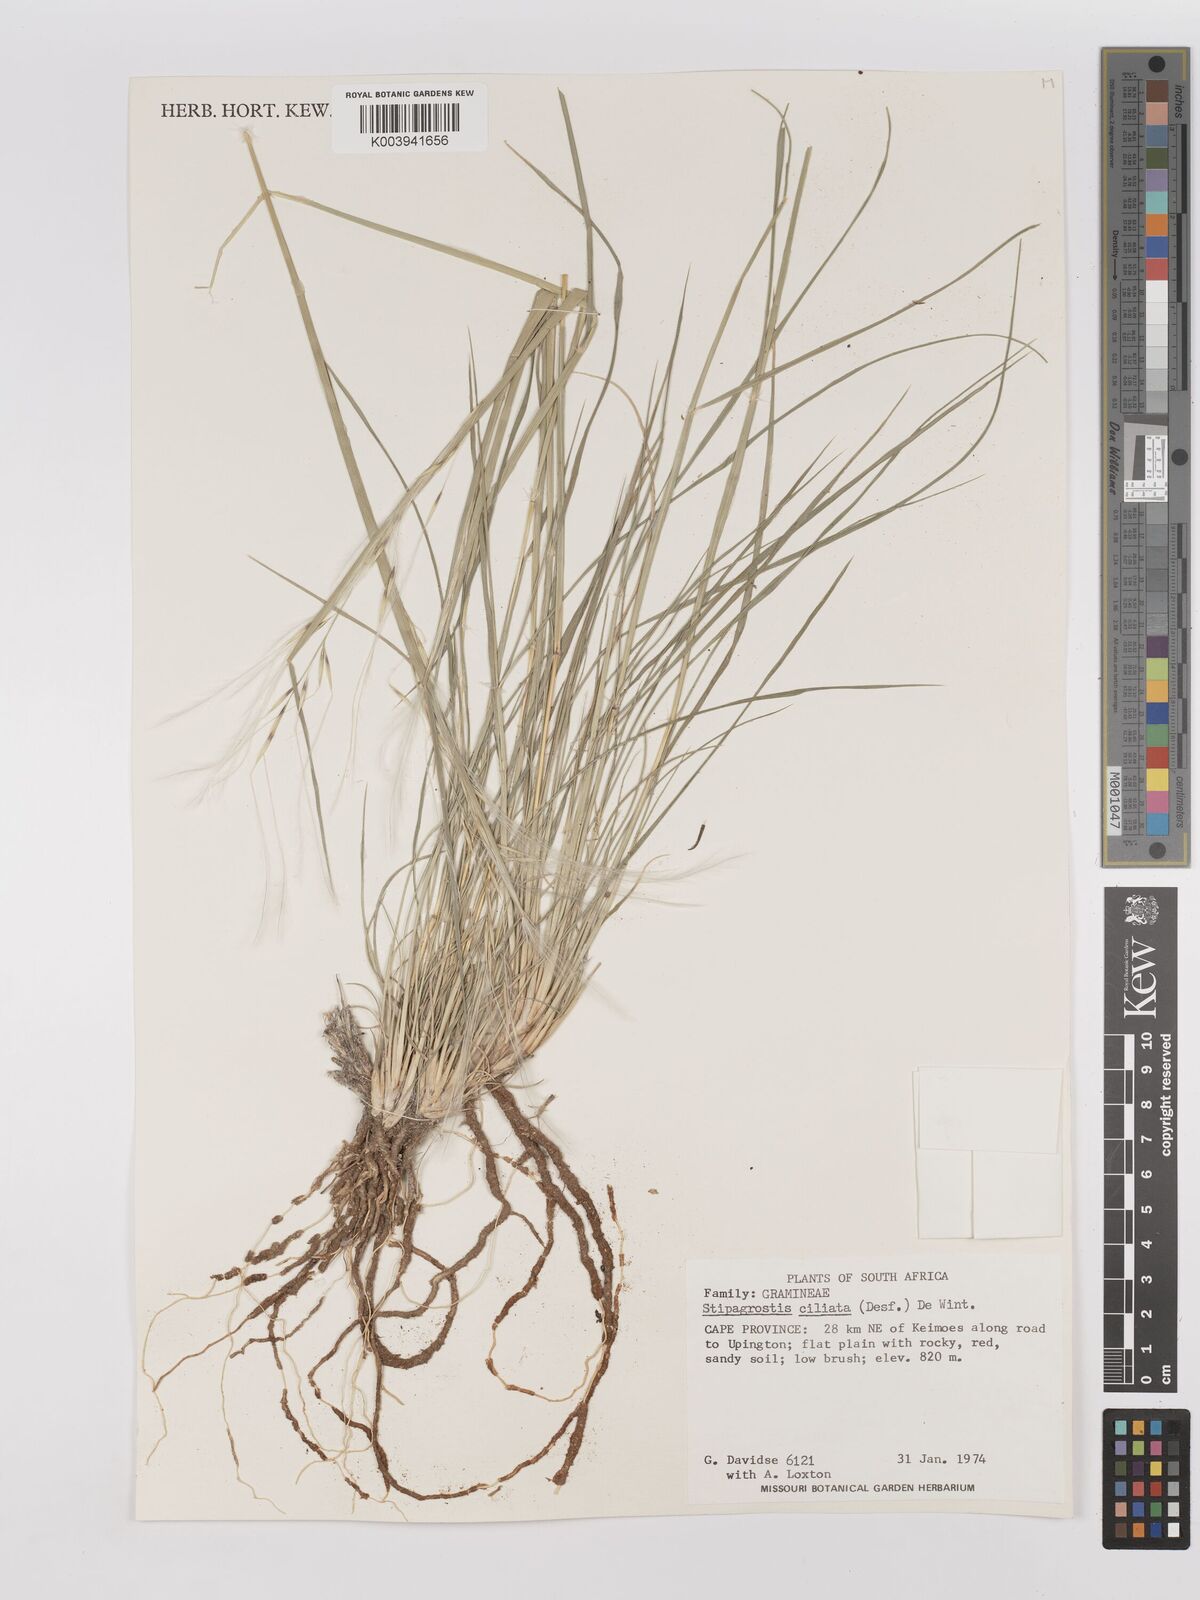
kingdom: Plantae
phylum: Tracheophyta
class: Liliopsida
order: Poales
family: Poaceae
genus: Stipagrostis
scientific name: Stipagrostis ciliata
